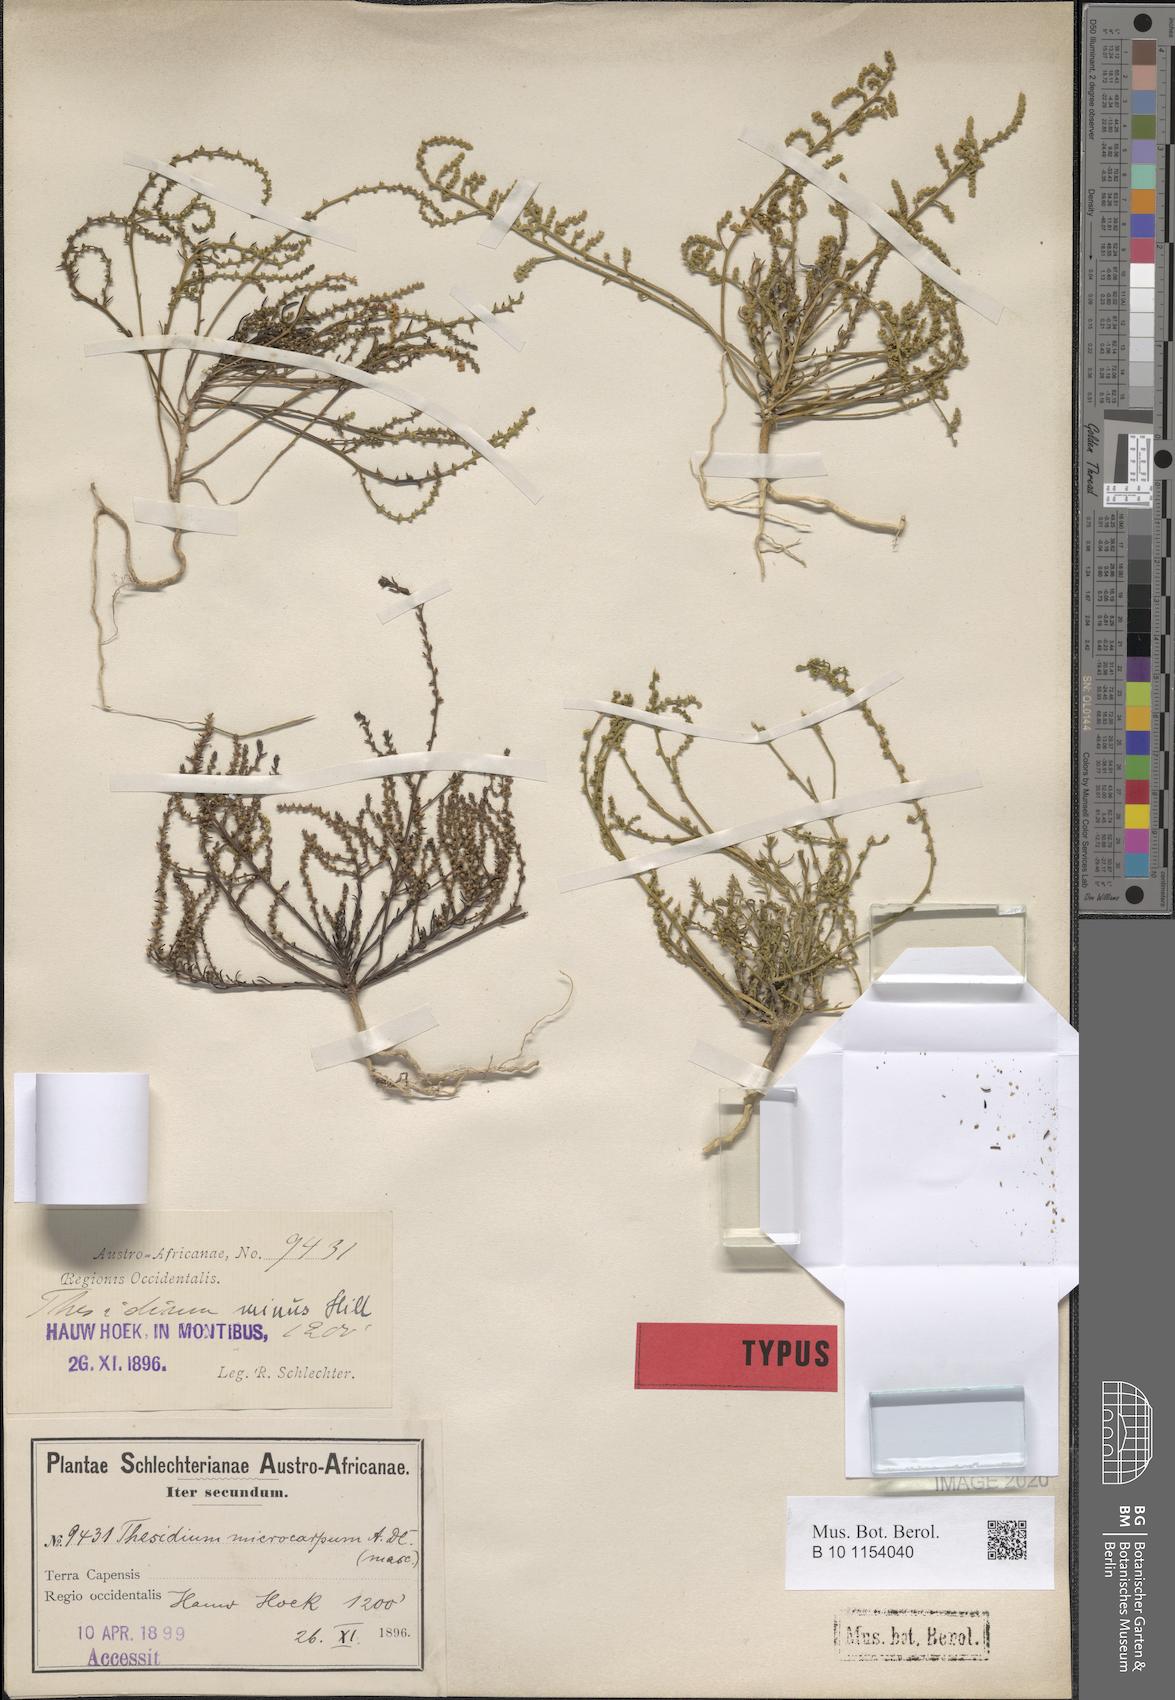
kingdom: Plantae
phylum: Tracheophyta
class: Magnoliopsida
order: Santalales
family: Thesiaceae
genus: Thesium
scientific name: Thesium minus
